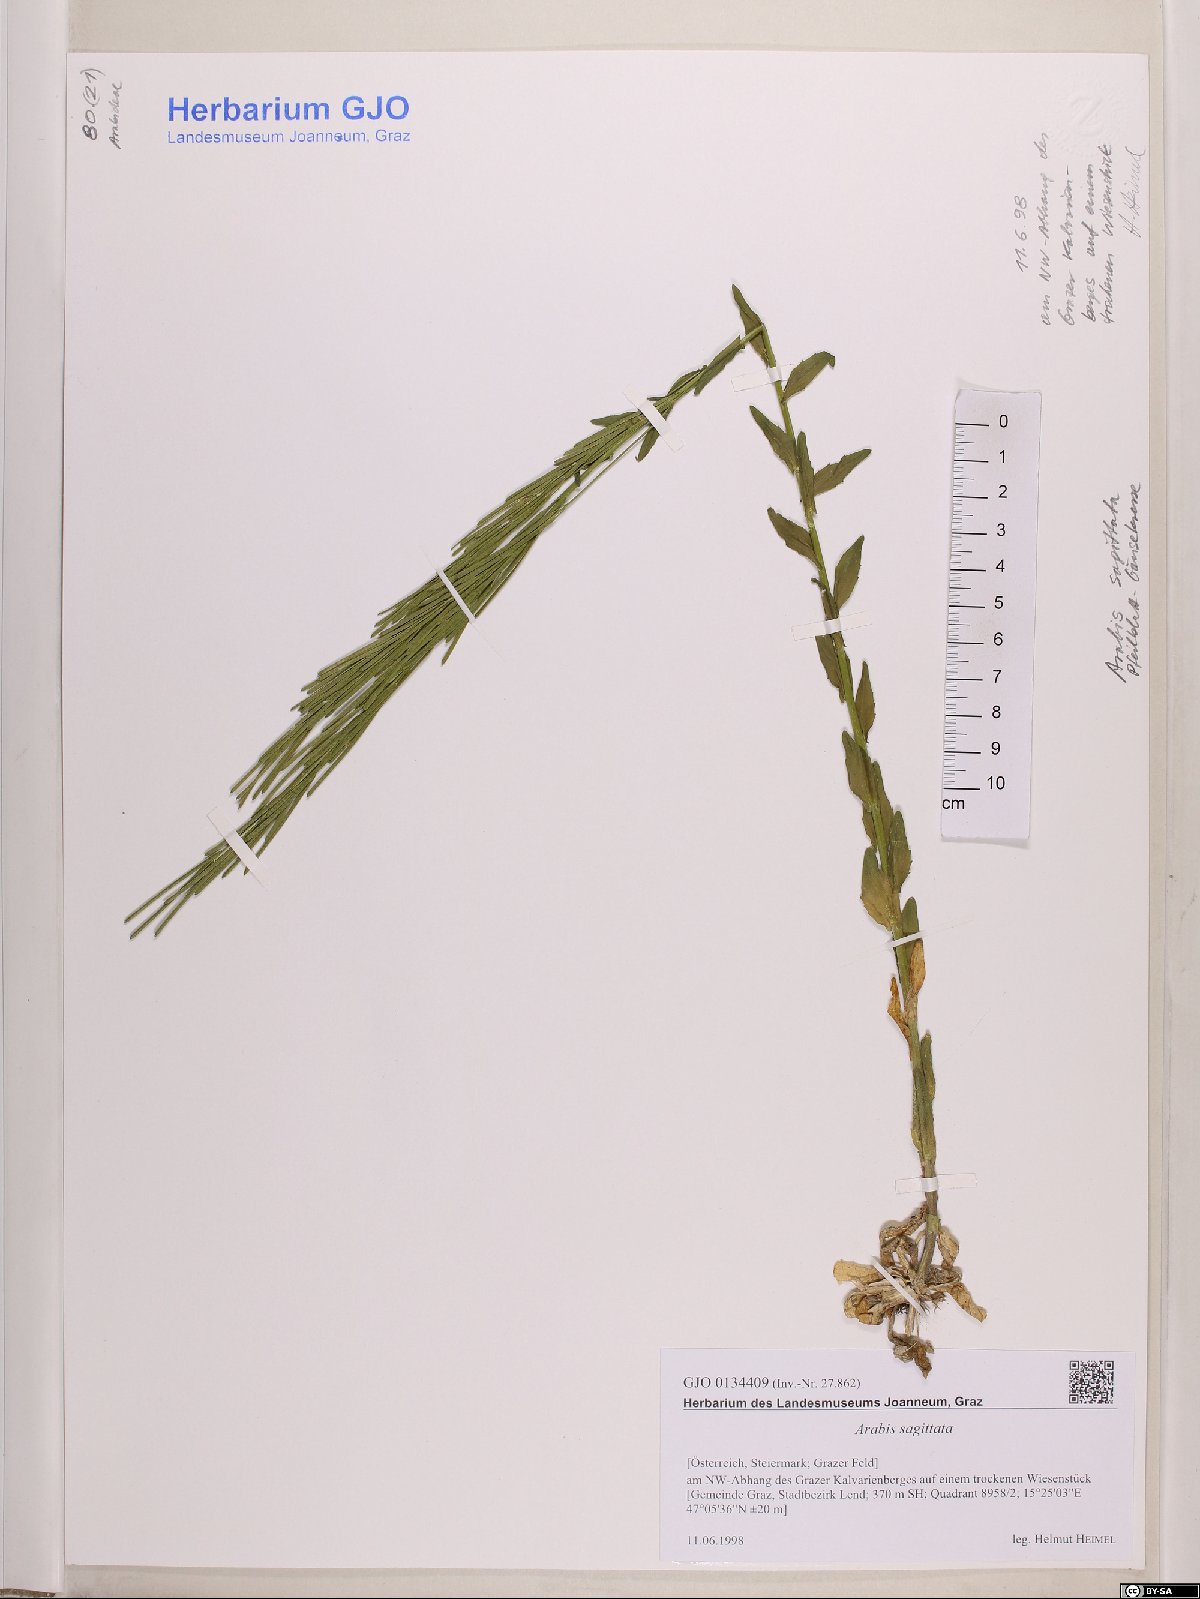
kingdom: Plantae
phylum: Tracheophyta
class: Magnoliopsida
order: Brassicales
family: Brassicaceae
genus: Arabis
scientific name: Arabis sagittata
